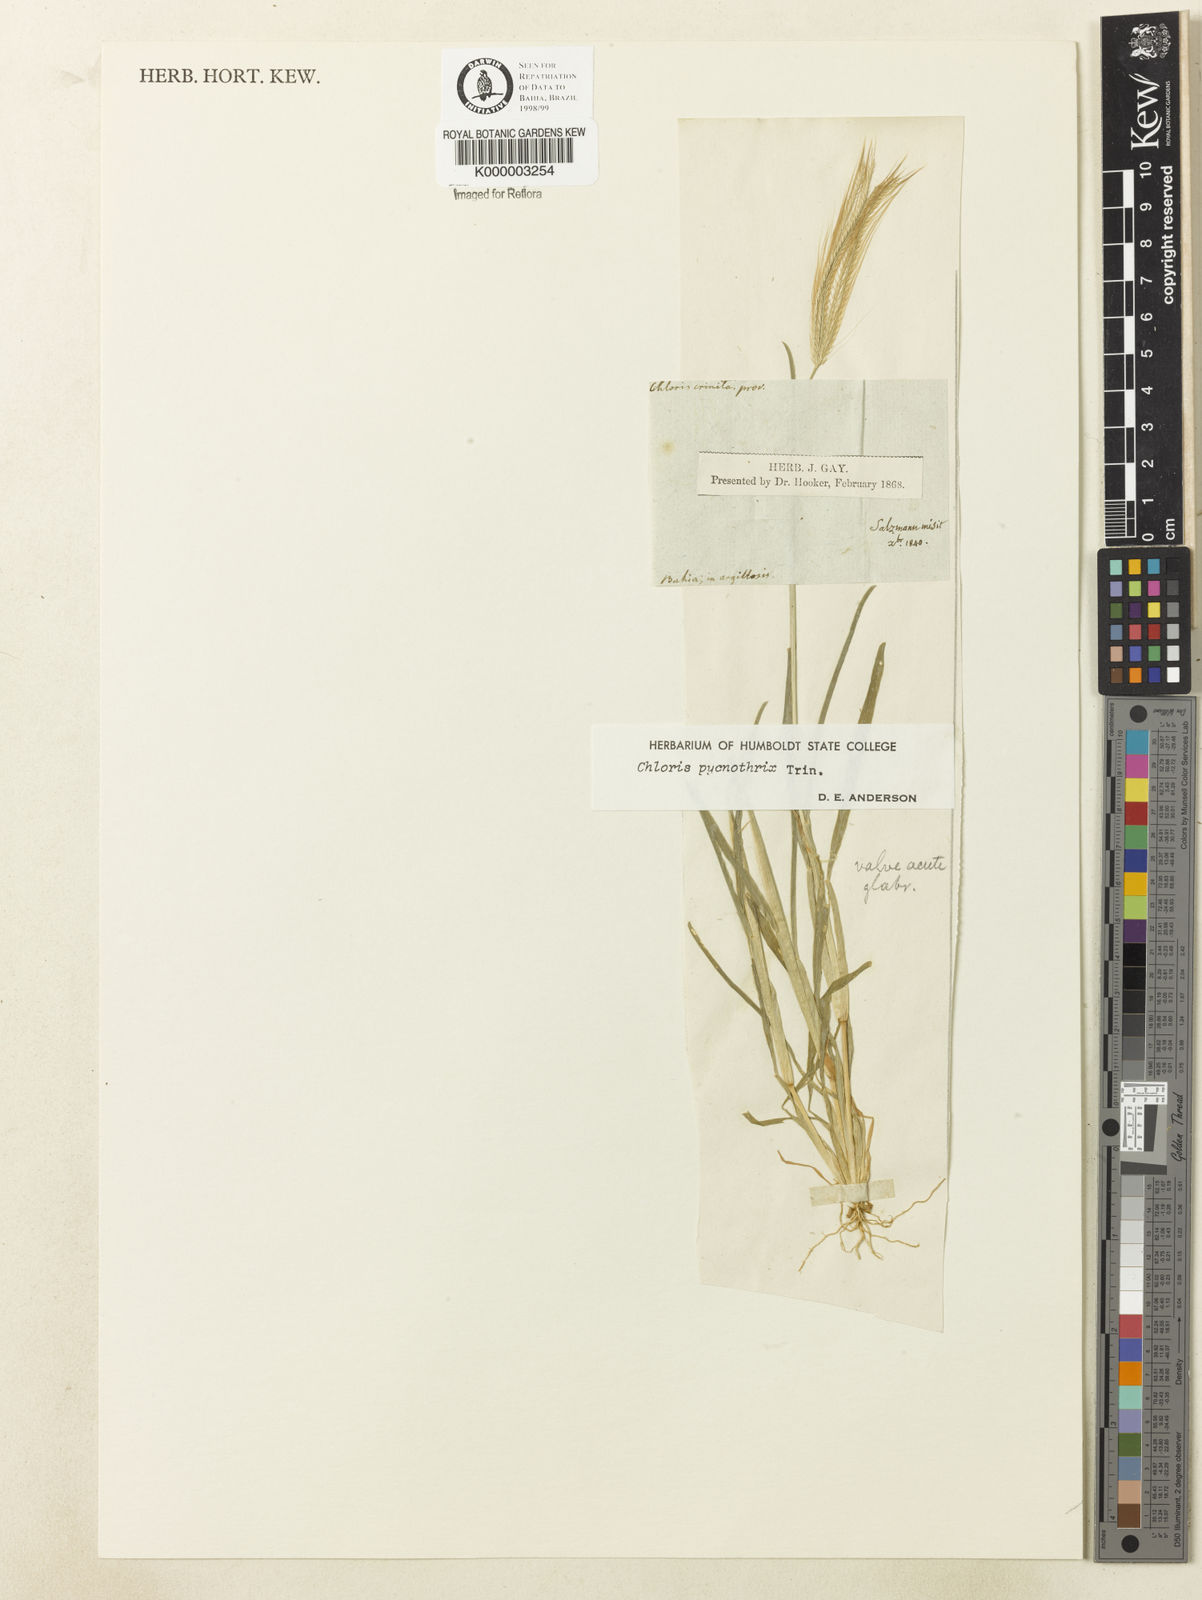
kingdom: Plantae
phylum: Tracheophyta
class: Liliopsida
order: Poales
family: Poaceae
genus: Chloris
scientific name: Chloris pycnothrix
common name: Spiderweb chloris
